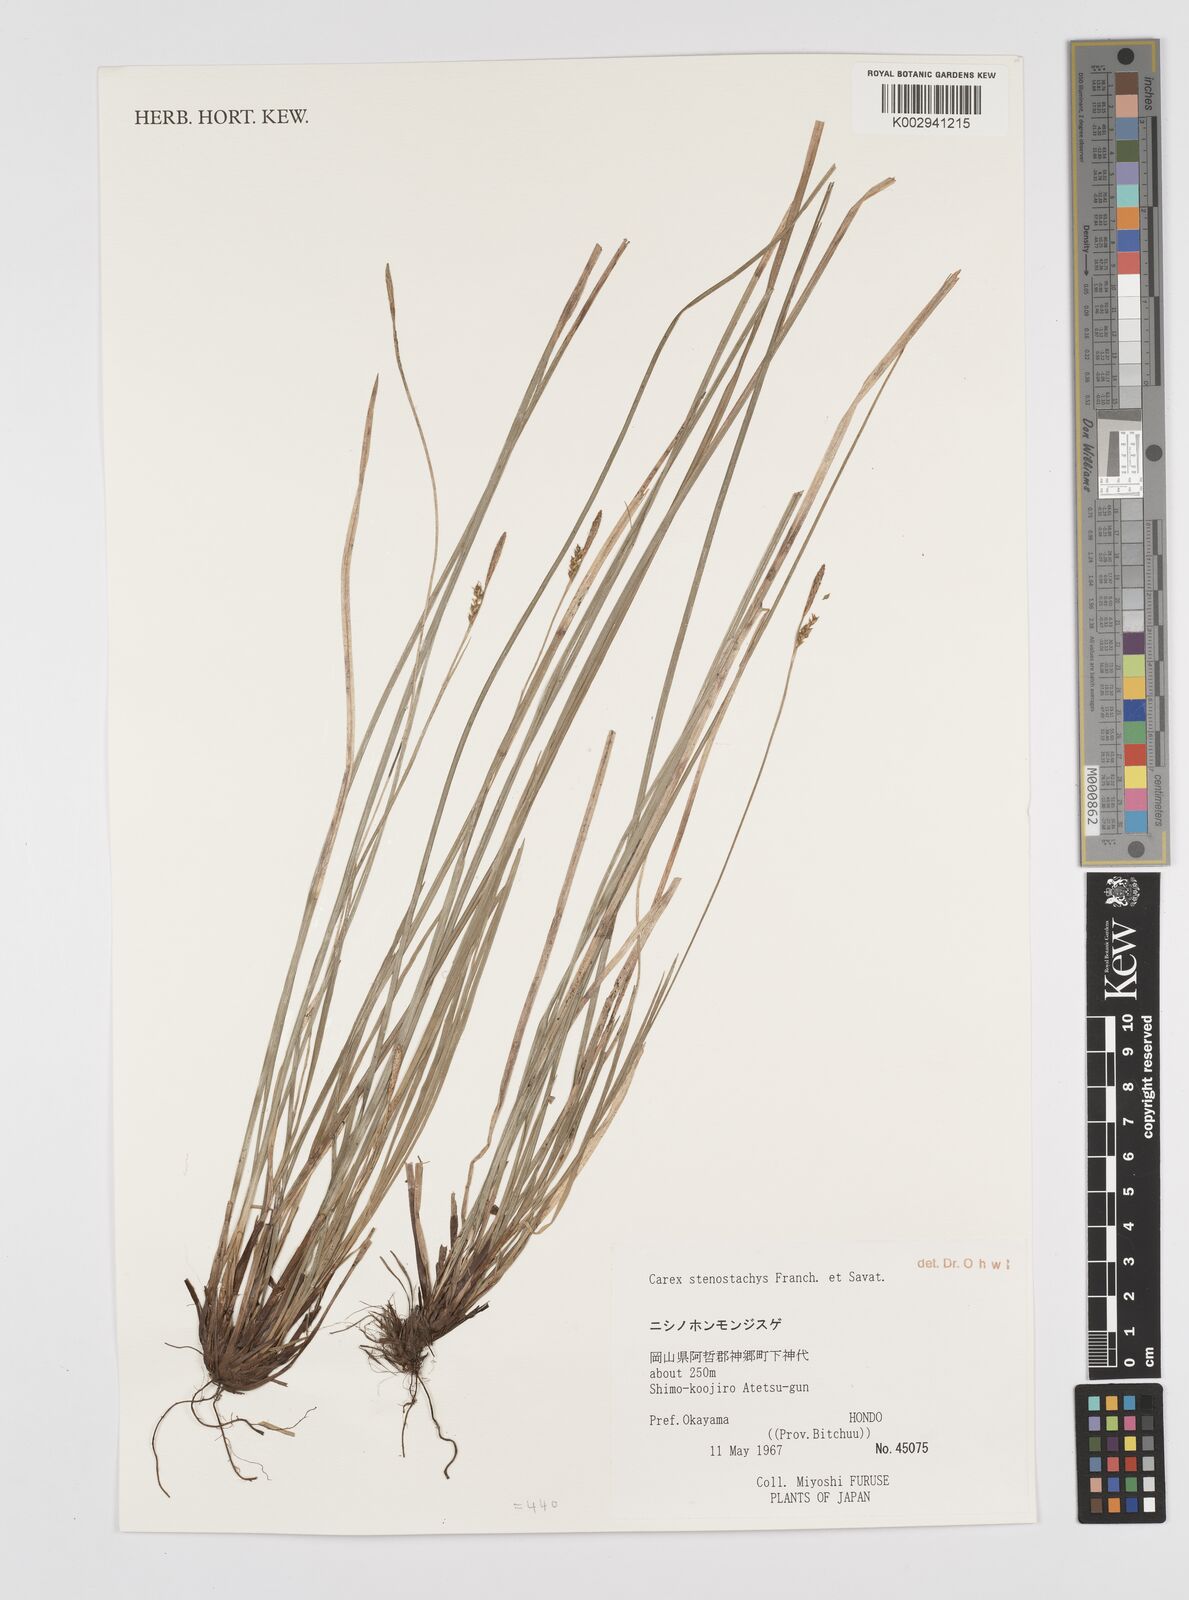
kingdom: Plantae
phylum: Tracheophyta
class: Liliopsida
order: Poales
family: Cyperaceae
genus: Carex
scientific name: Carex pisiformis
